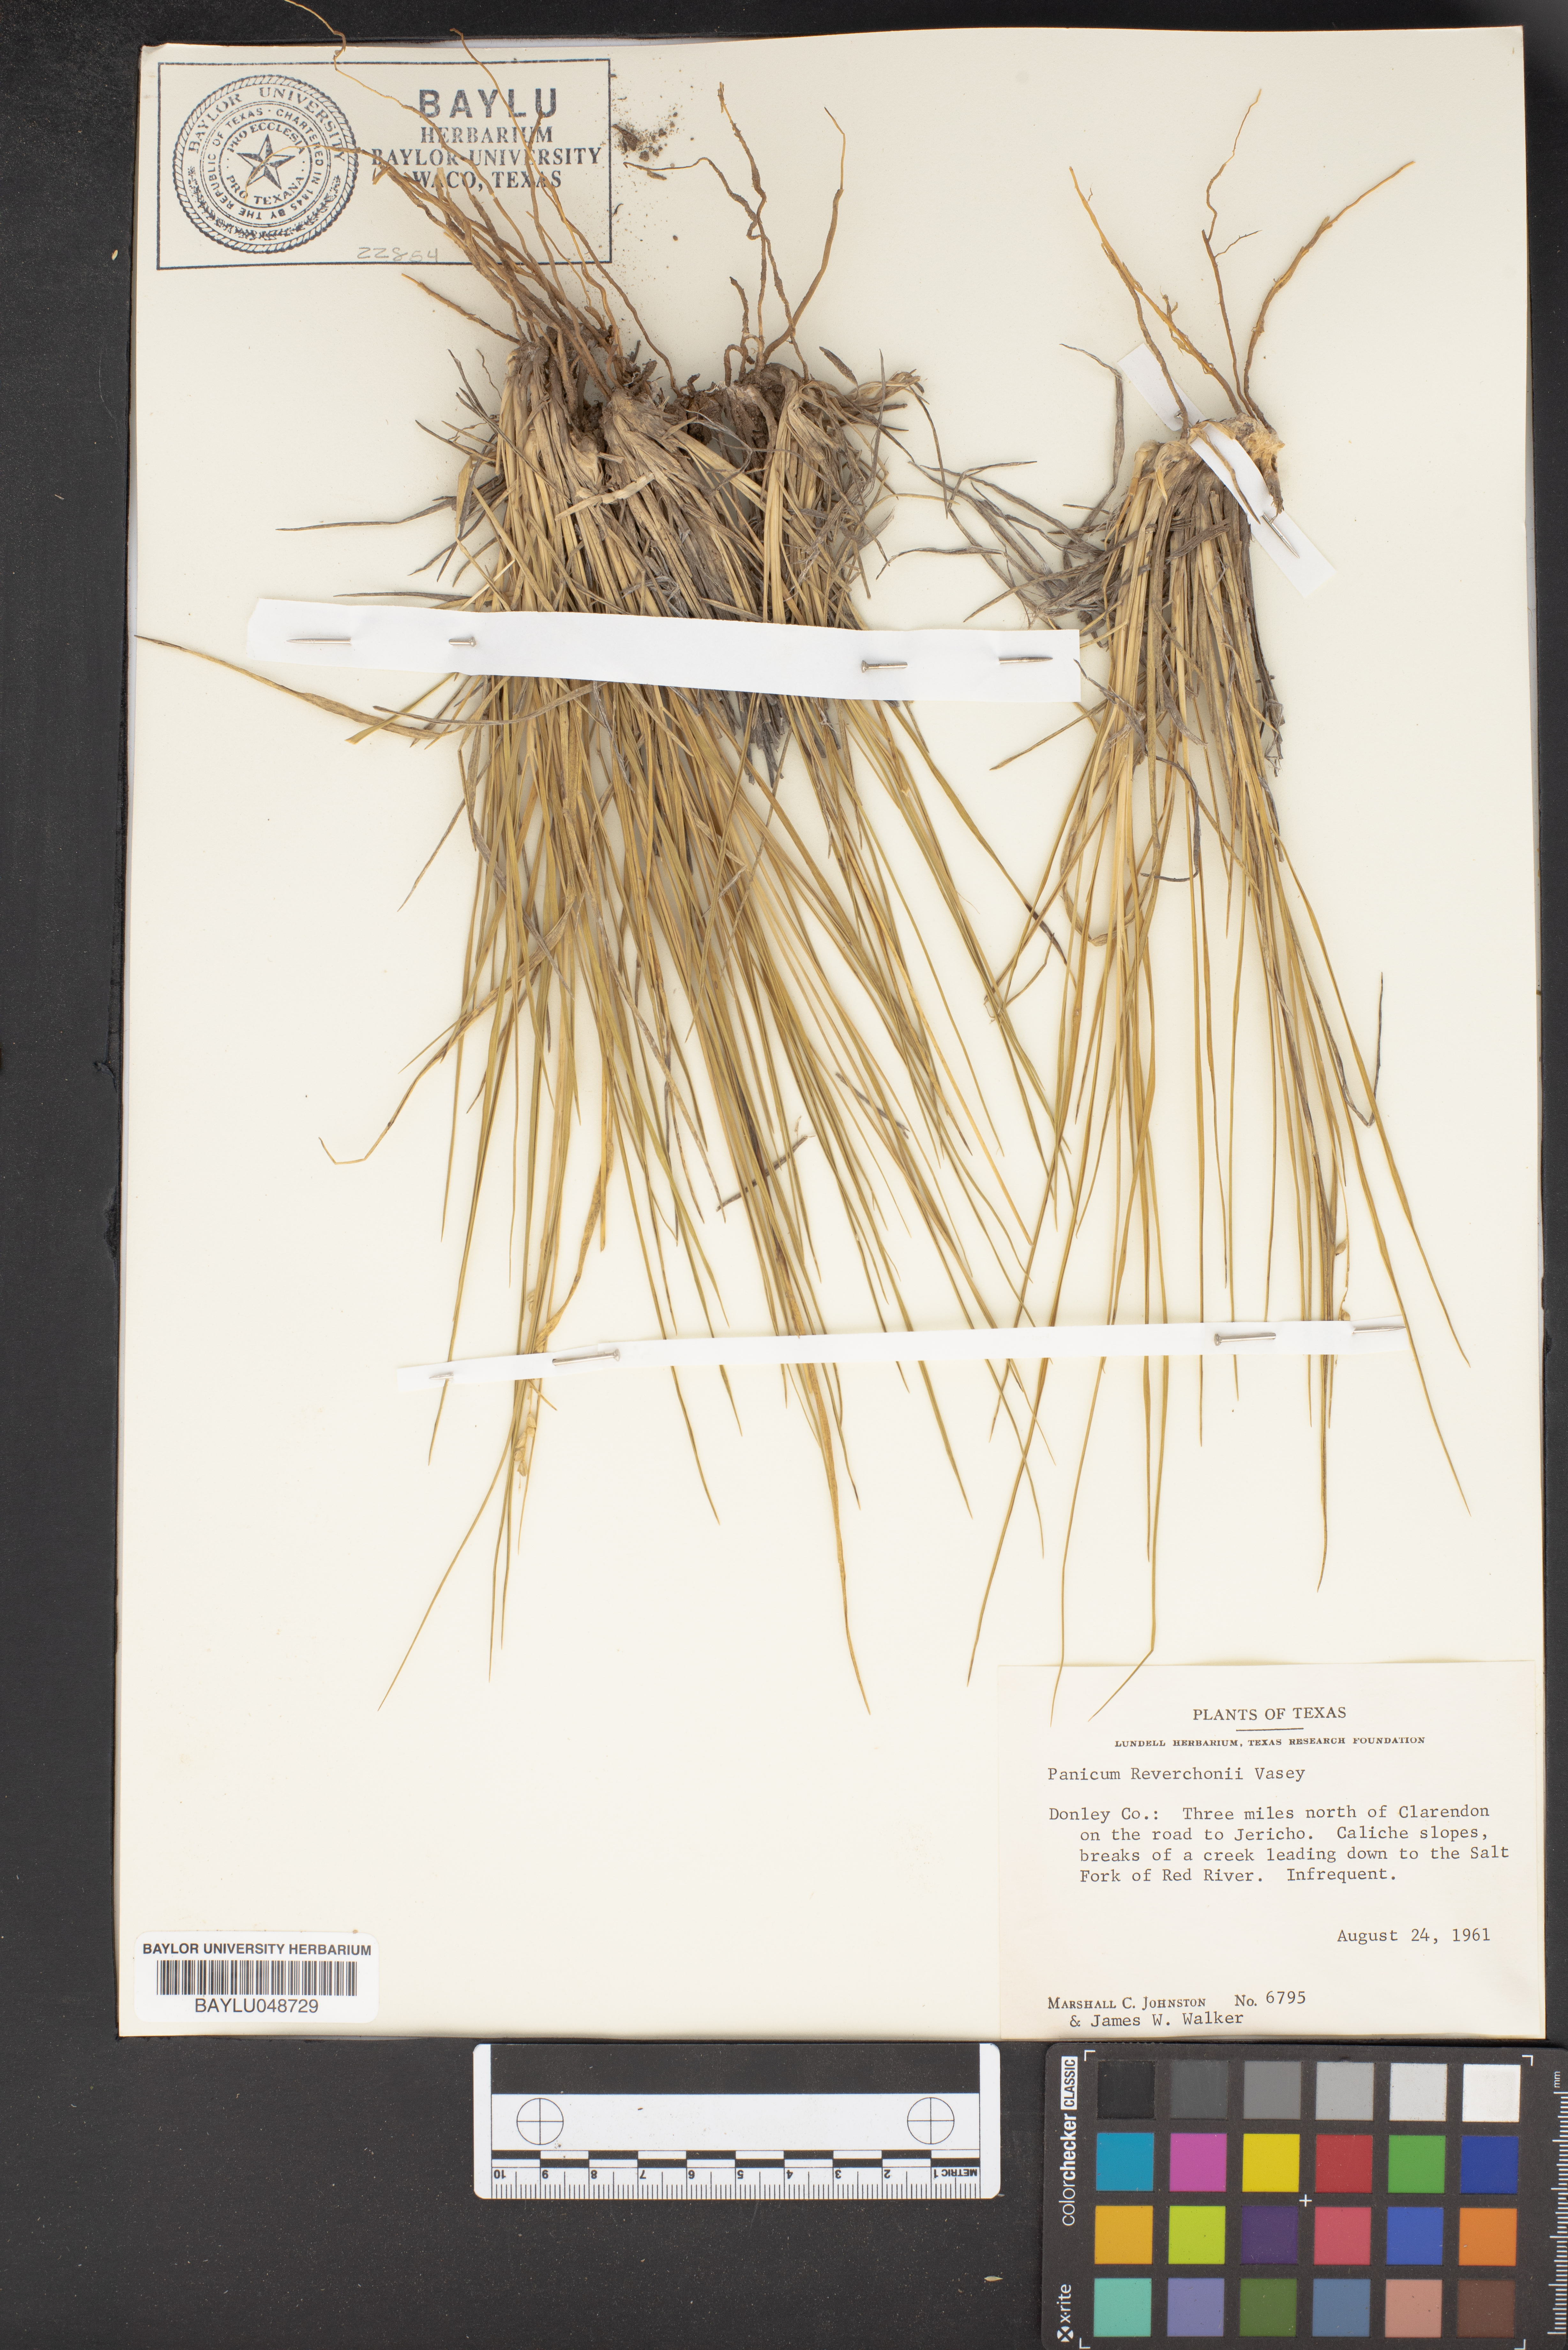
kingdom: Plantae
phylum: Tracheophyta
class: Liliopsida
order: Poales
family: Poaceae
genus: Setaria
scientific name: Setaria reverchonii
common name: Reverchon's bristle grass
